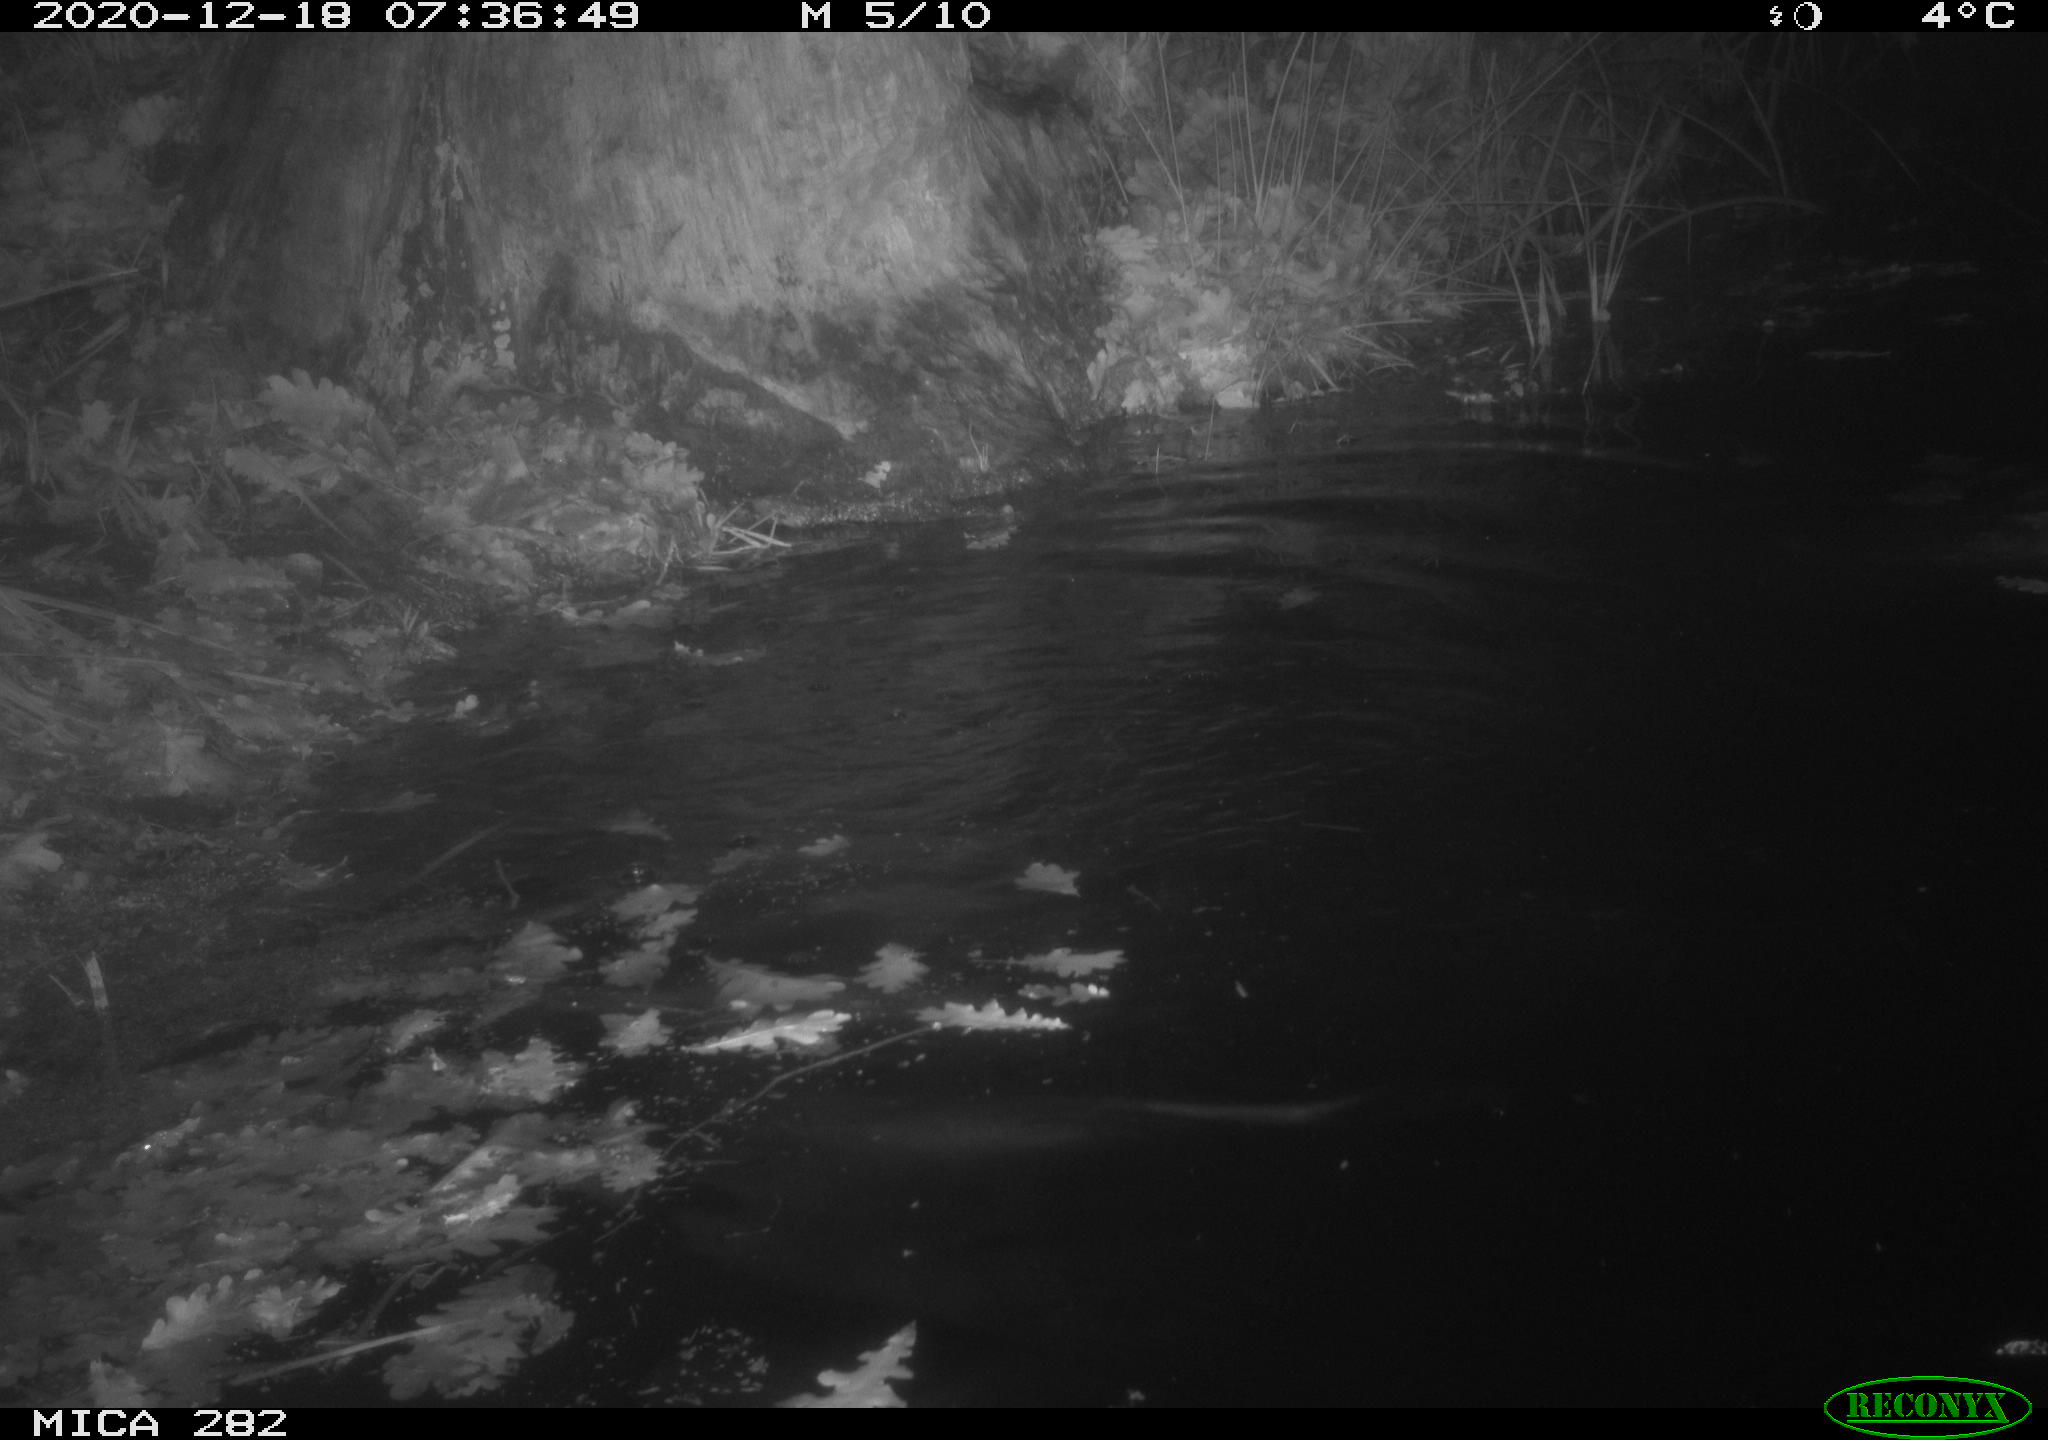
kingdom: Animalia
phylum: Chordata
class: Mammalia
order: Rodentia
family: Castoridae
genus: Castor
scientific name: Castor fiber
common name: Eurasian beaver
